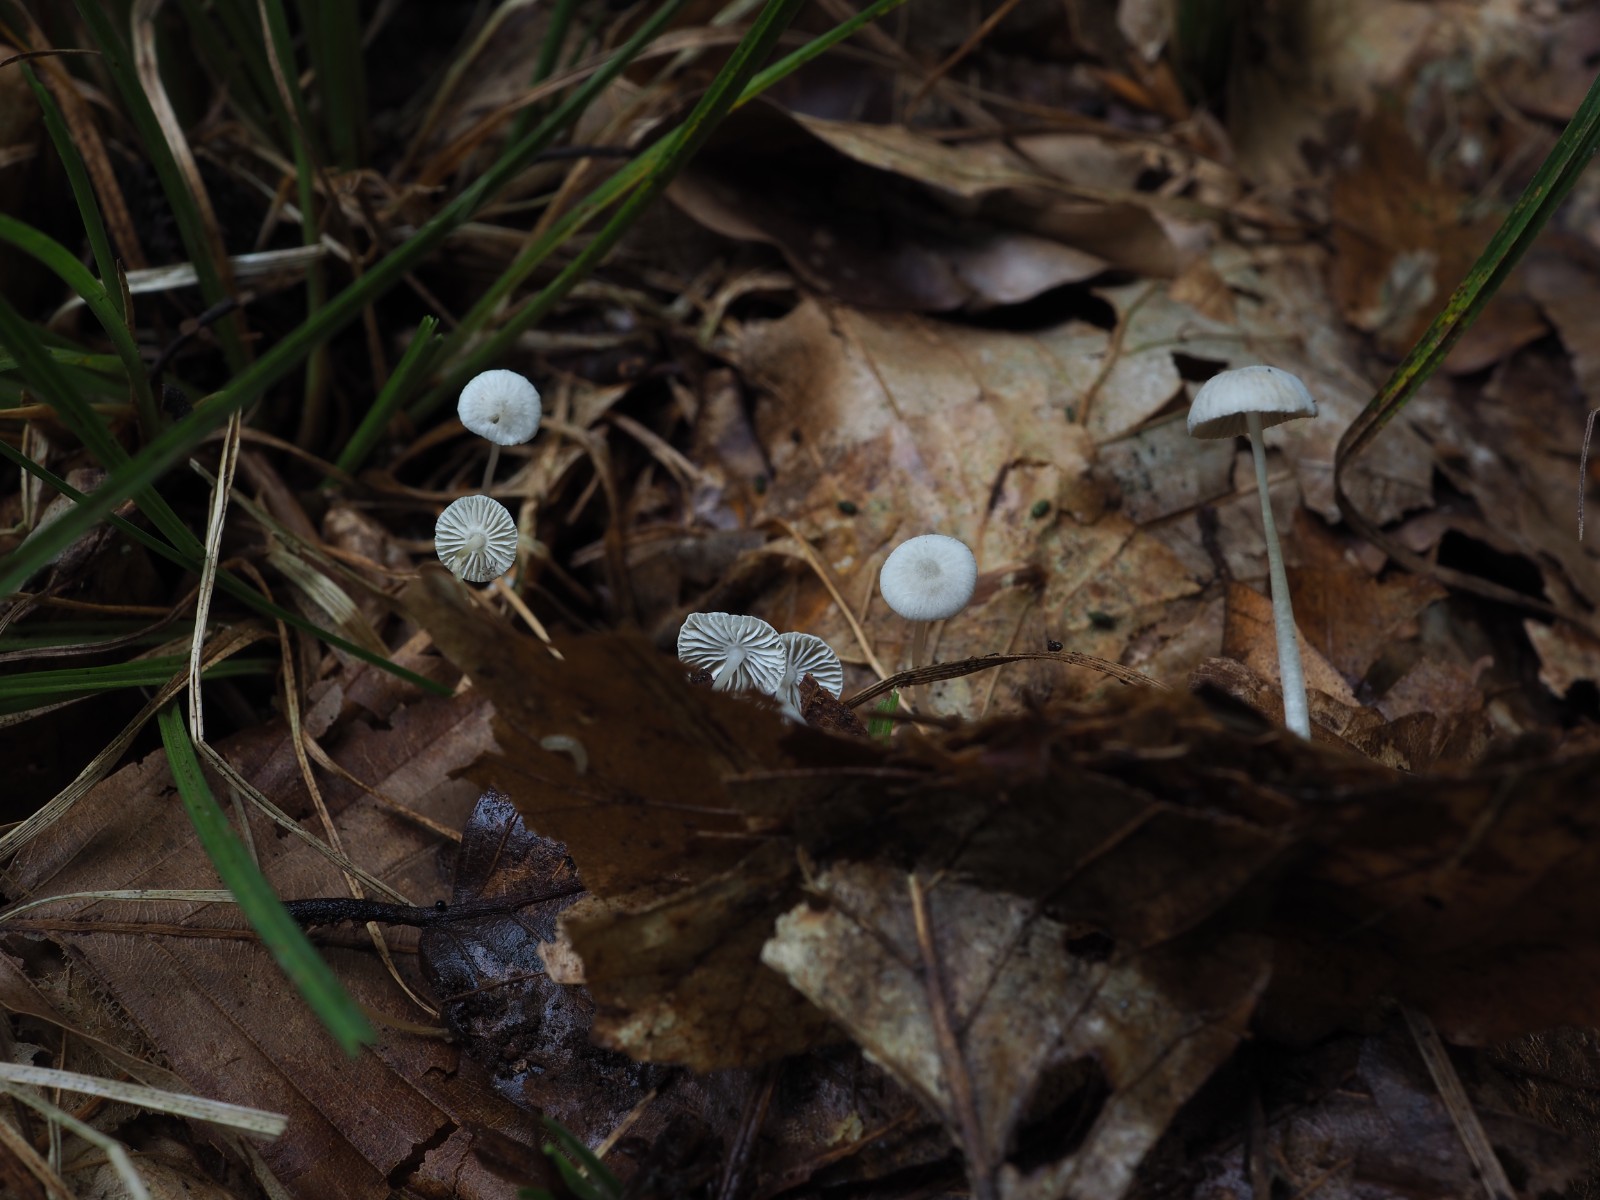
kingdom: Fungi
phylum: Basidiomycota
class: Agaricomycetes
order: Agaricales
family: Mycenaceae
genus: Mycena
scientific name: Mycena stylobates
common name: fureskivet huesvamp
